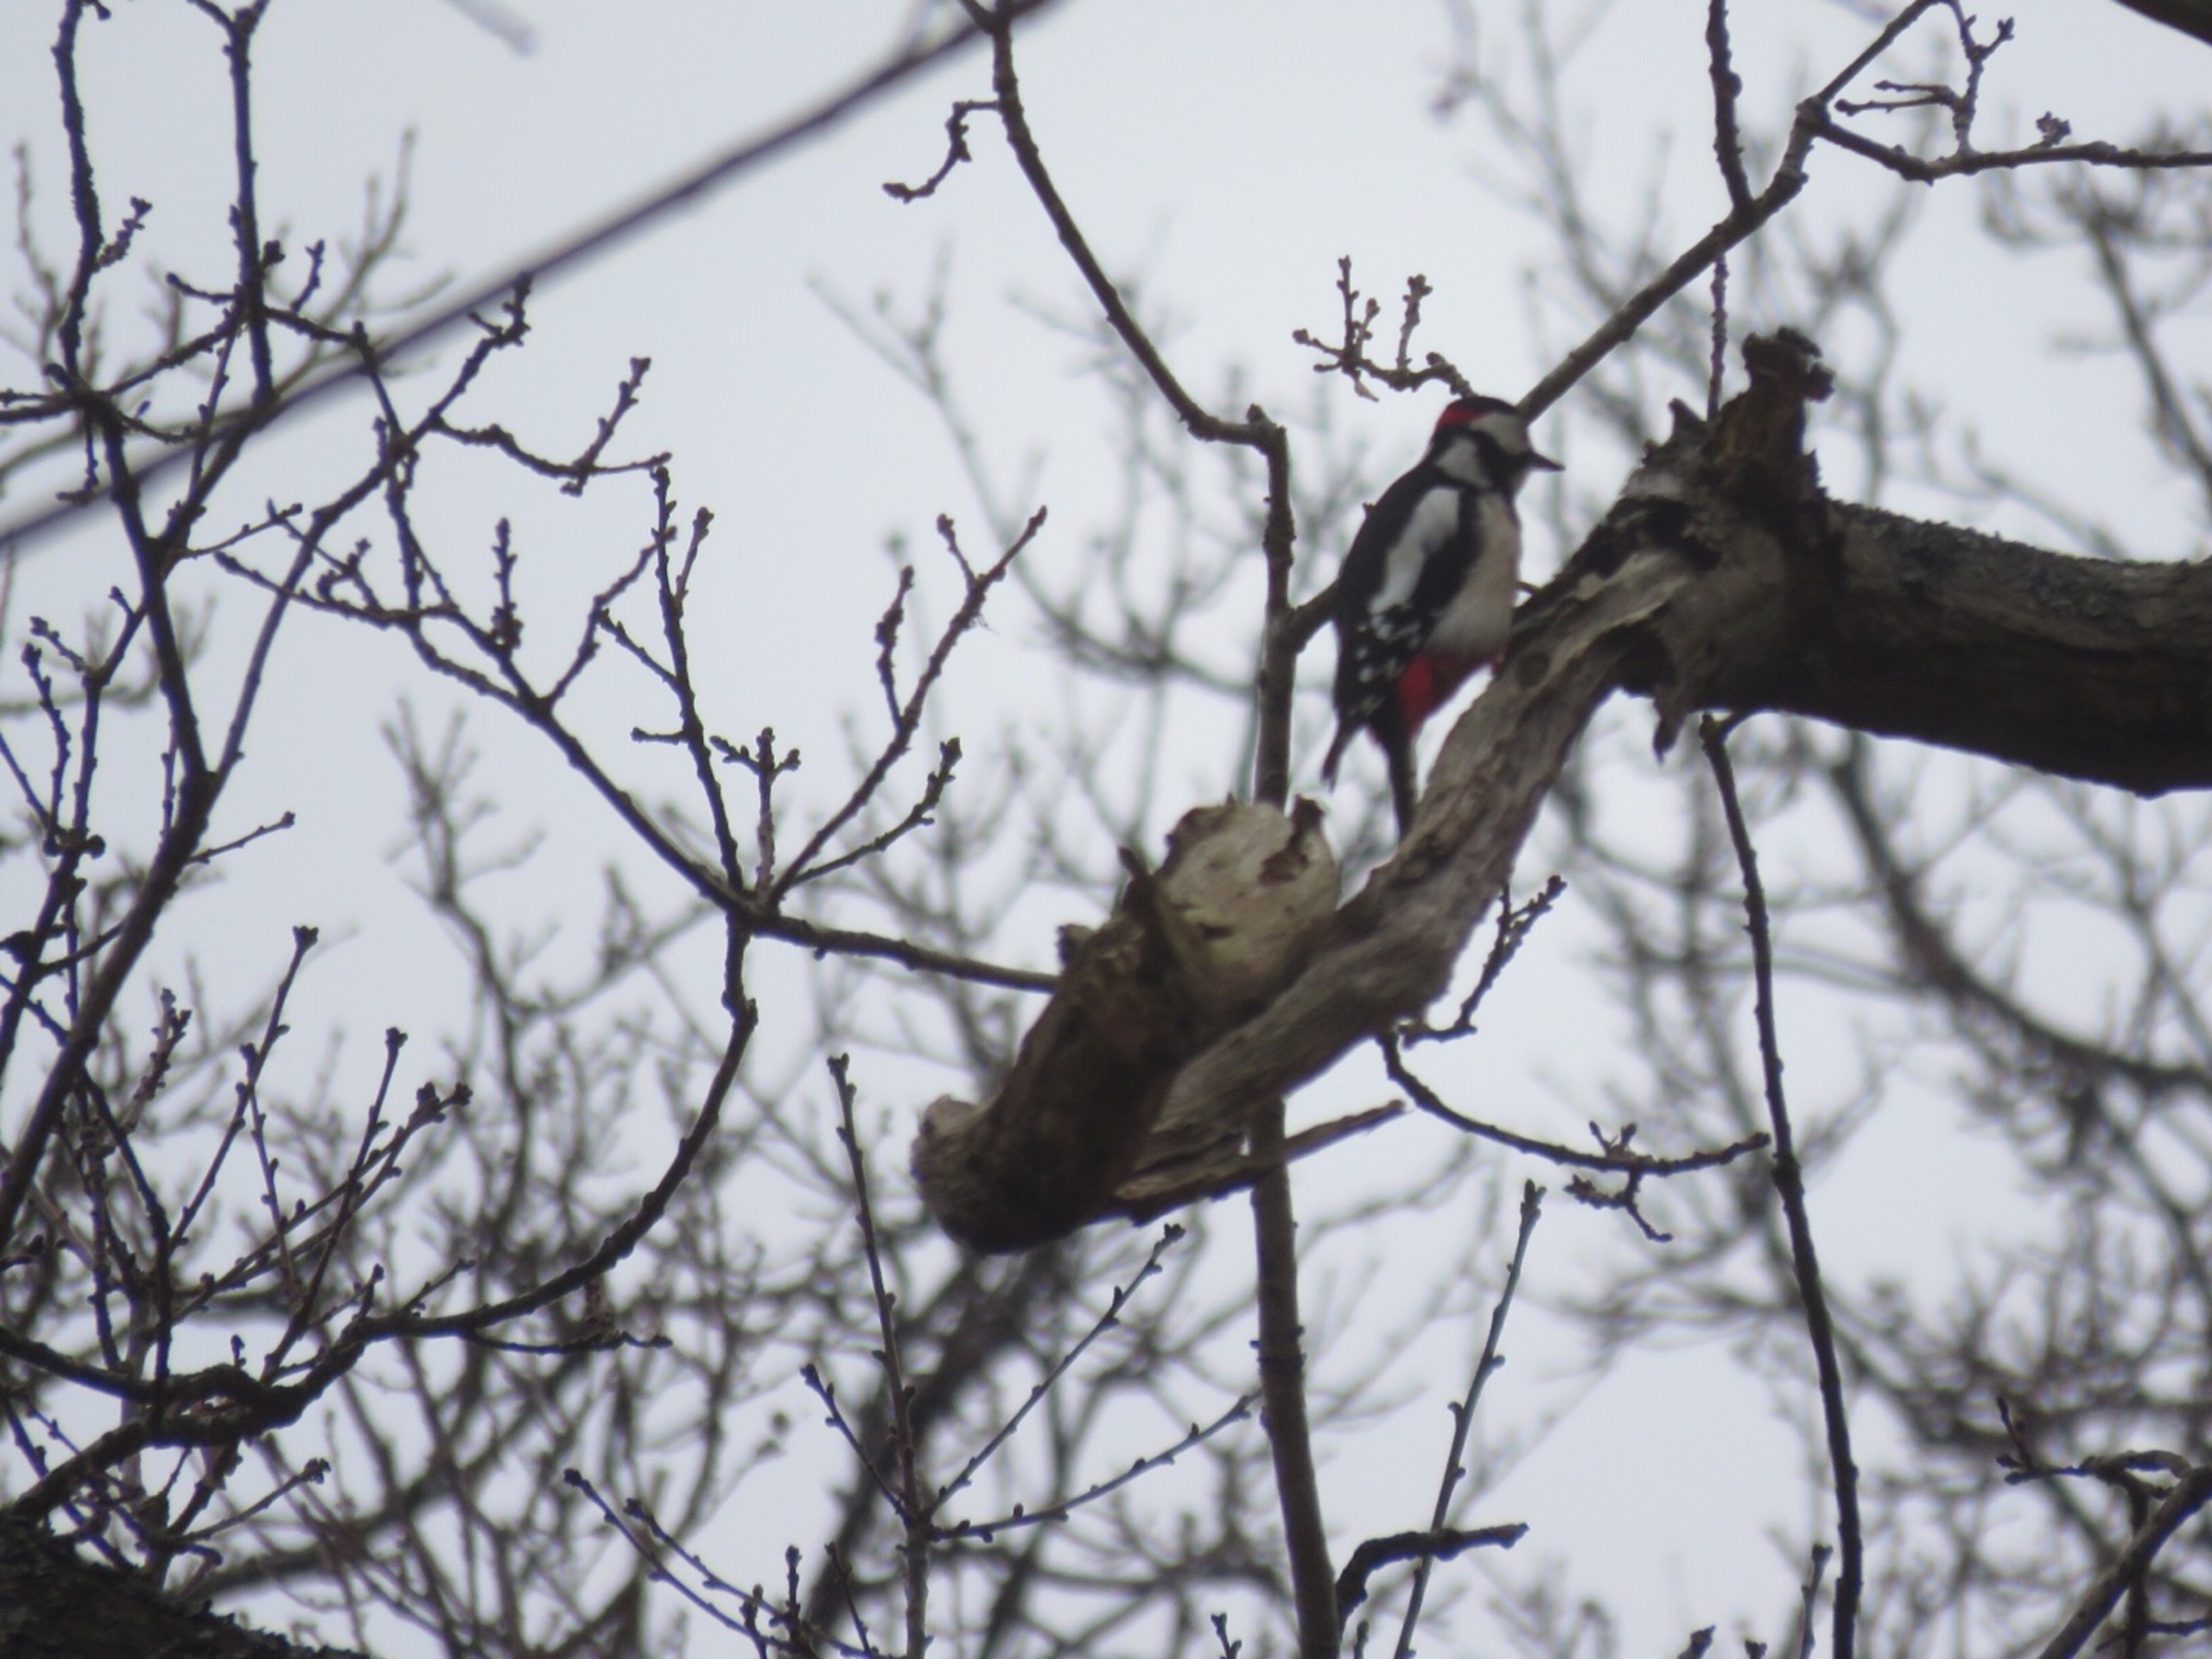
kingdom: Animalia
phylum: Chordata
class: Aves
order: Piciformes
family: Picidae
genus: Dendrocopos
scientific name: Dendrocopos major
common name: Stor flagspætte
